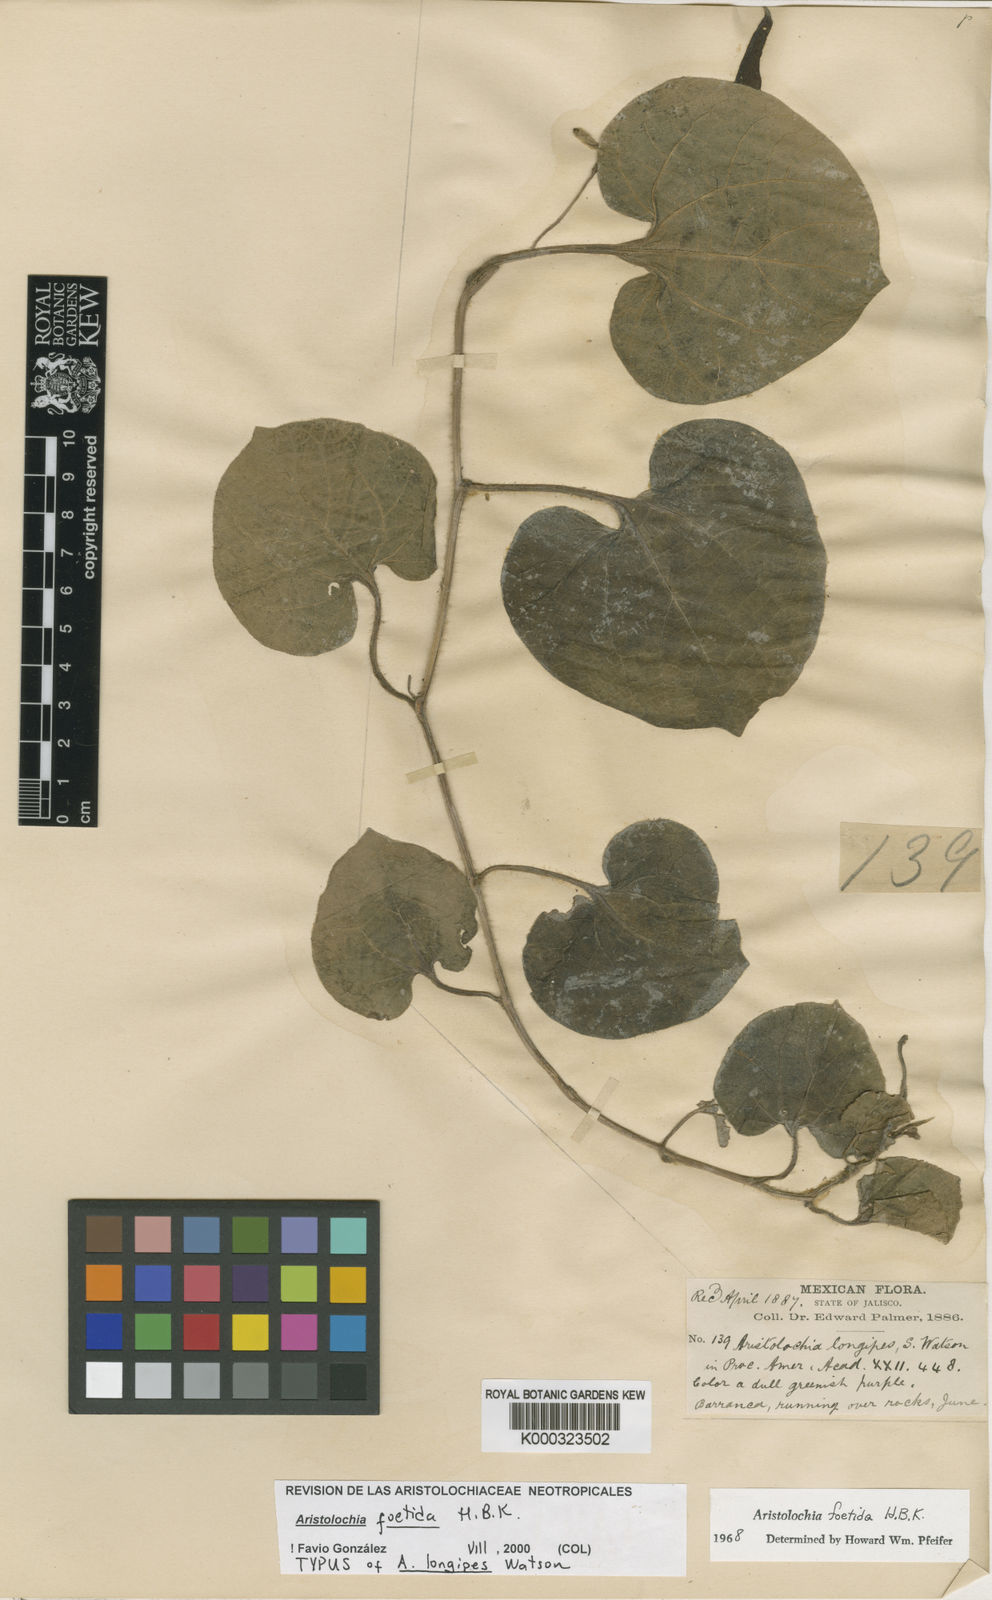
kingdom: Plantae
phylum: Tracheophyta
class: Magnoliopsida
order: Piperales
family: Aristolochiaceae
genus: Aristolochia
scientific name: Aristolochia
